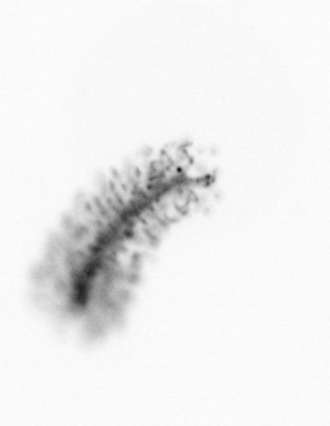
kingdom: Chromista
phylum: Ochrophyta
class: Bacillariophyceae
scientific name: Bacillariophyceae
